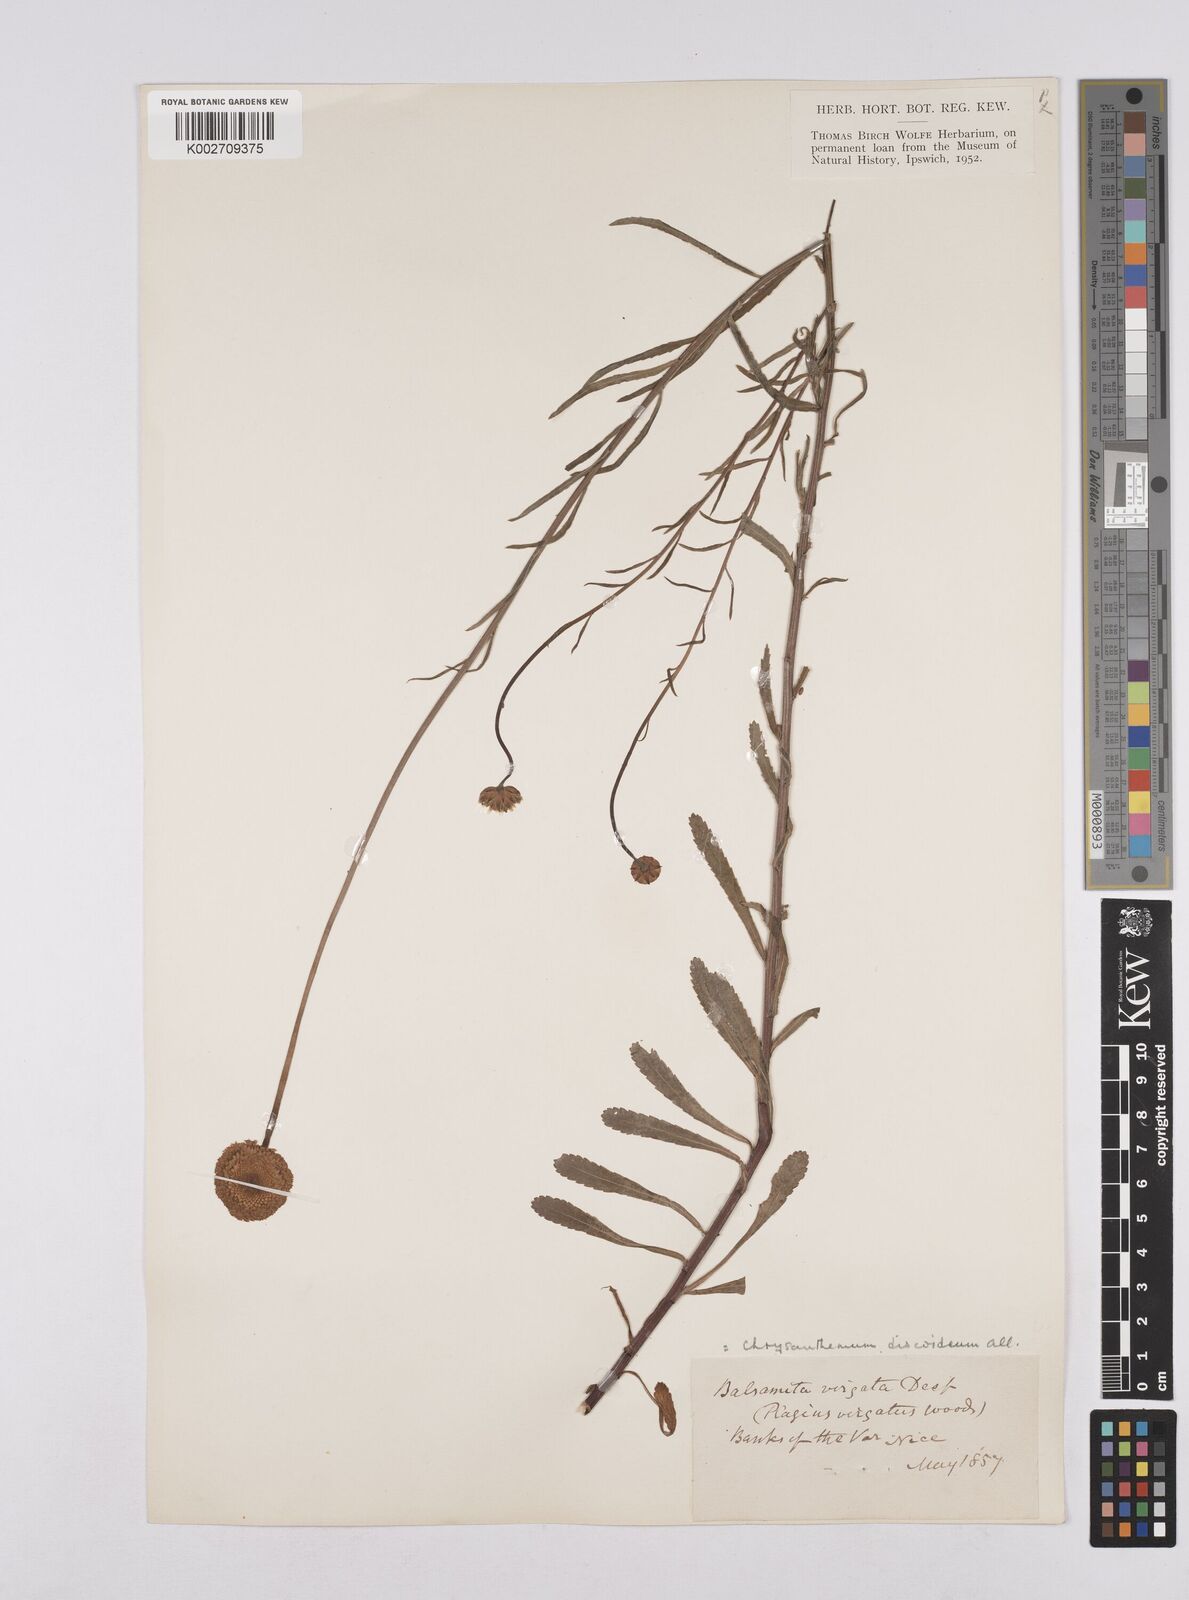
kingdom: Plantae
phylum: Tracheophyta
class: Magnoliopsida
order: Asterales
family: Asteraceae
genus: Leucanthemum
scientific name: Leucanthemum vulgare
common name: Oxeye daisy
